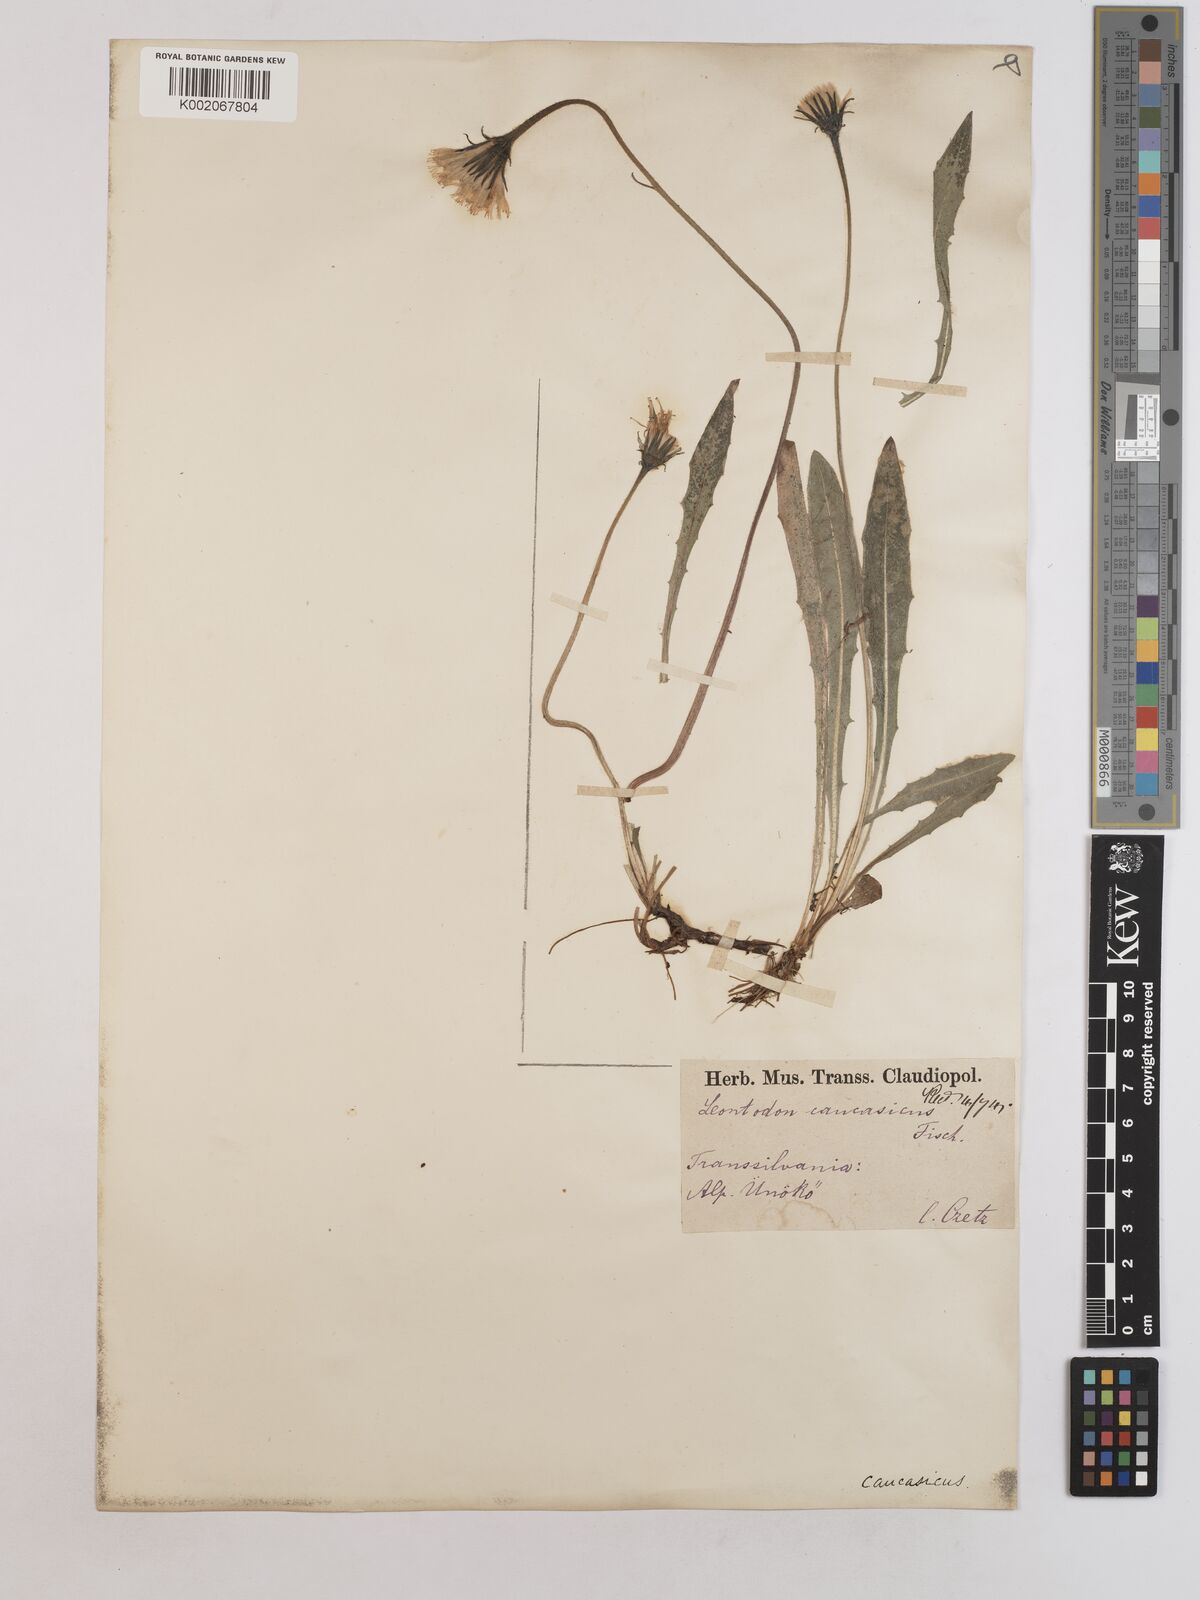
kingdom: Plantae
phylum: Tracheophyta
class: Magnoliopsida
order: Asterales
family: Asteraceae
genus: Leontodon
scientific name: Leontodon hispidus
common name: Rough hawkbit
